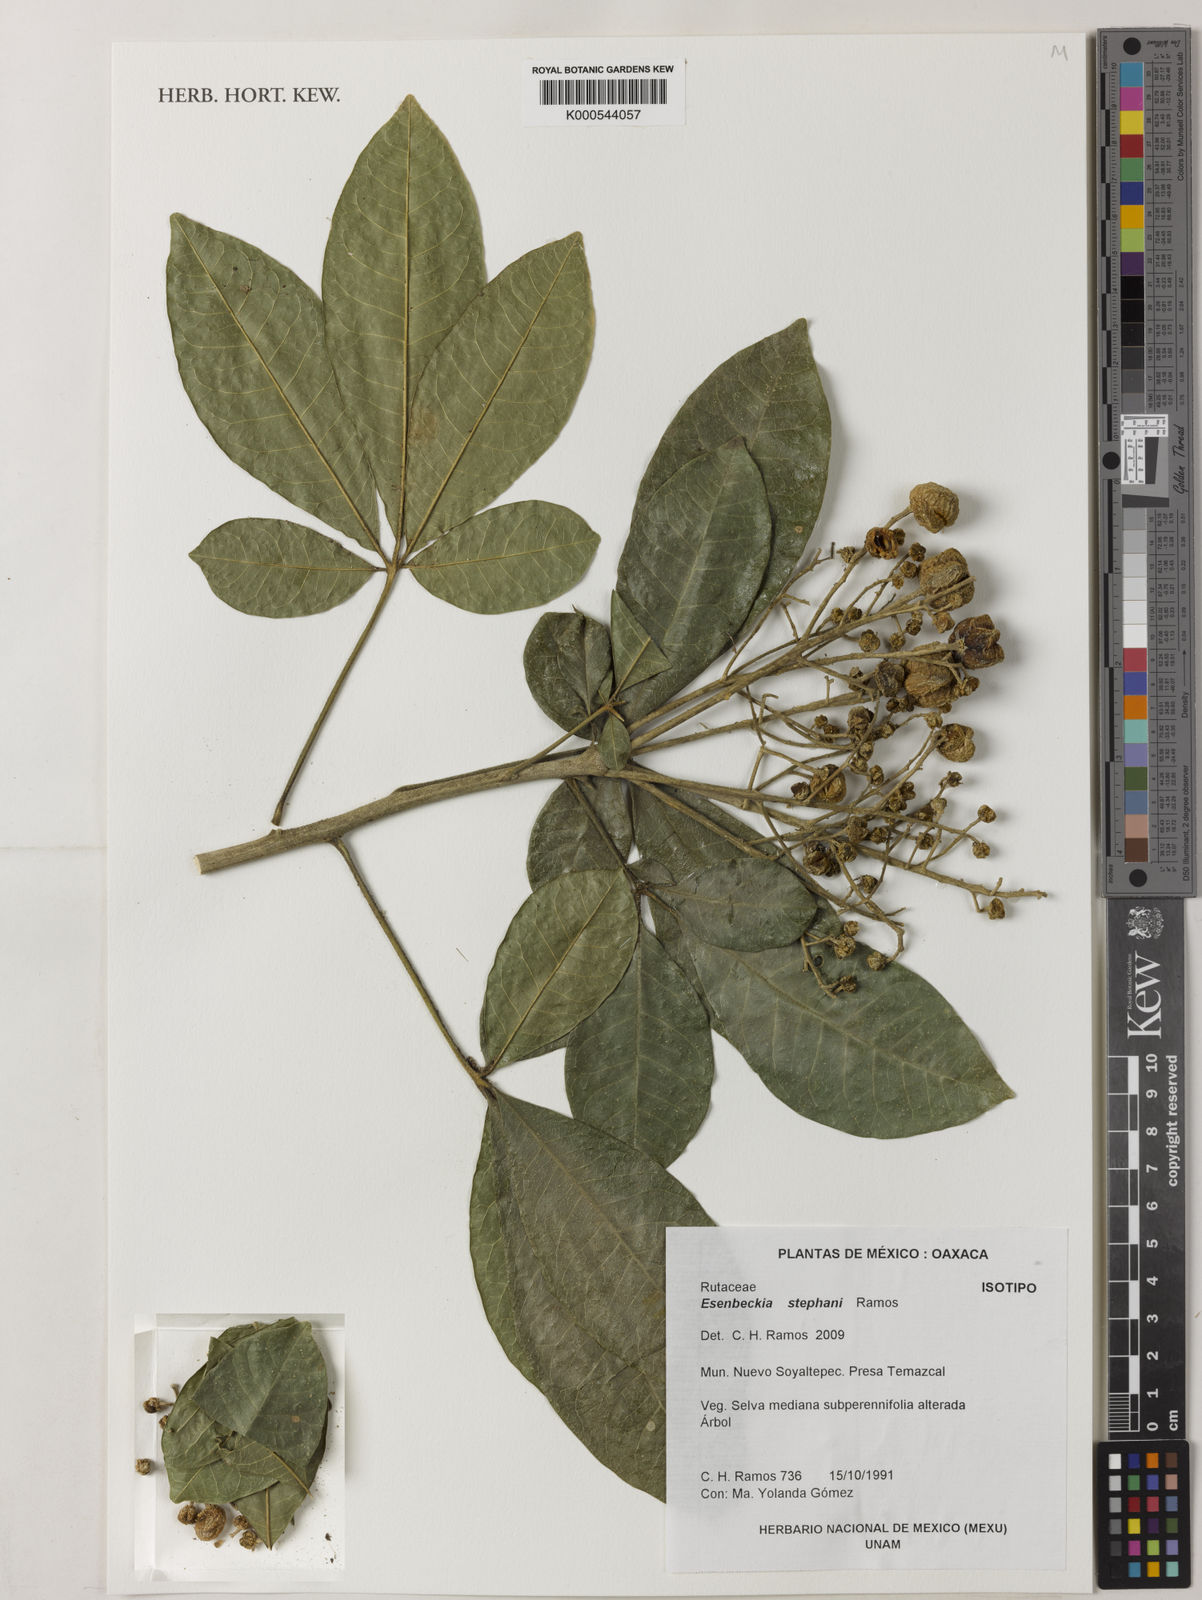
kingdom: Plantae
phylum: Tracheophyta
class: Magnoliopsida
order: Sapindales
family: Rutaceae
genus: Esenbeckia
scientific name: Esenbeckia stephani
